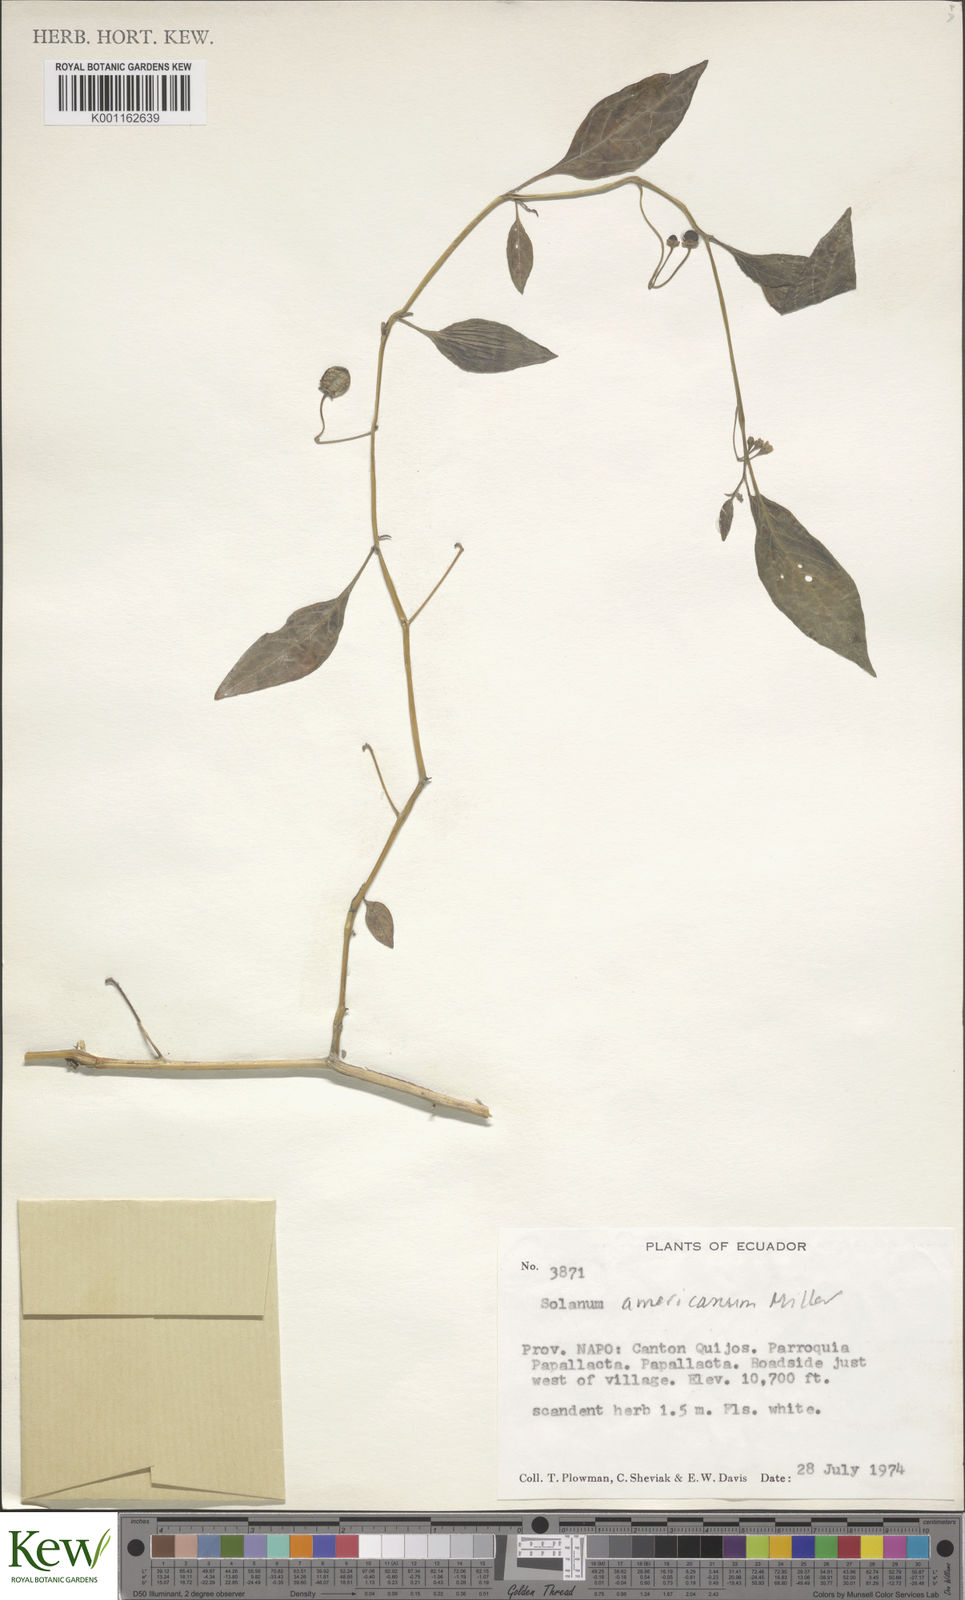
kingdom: Plantae
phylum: Tracheophyta
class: Magnoliopsida
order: Solanales
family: Solanaceae
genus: Solanum
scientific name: Solanum macrotonum
